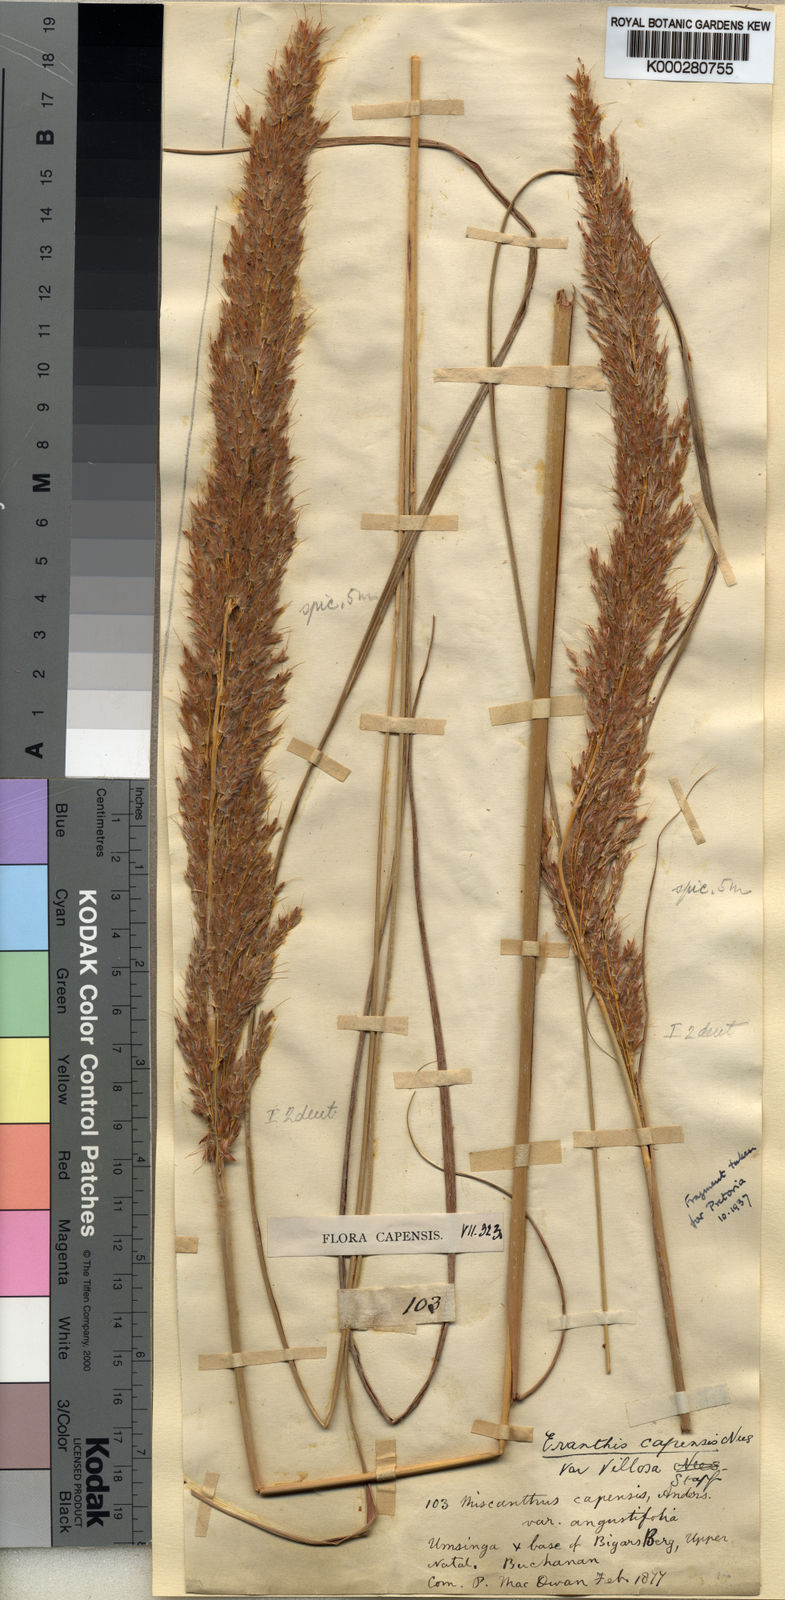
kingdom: Plantae
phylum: Tracheophyta
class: Liliopsida
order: Poales
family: Poaceae
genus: Miscanthus
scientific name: Miscanthus ecklonii
